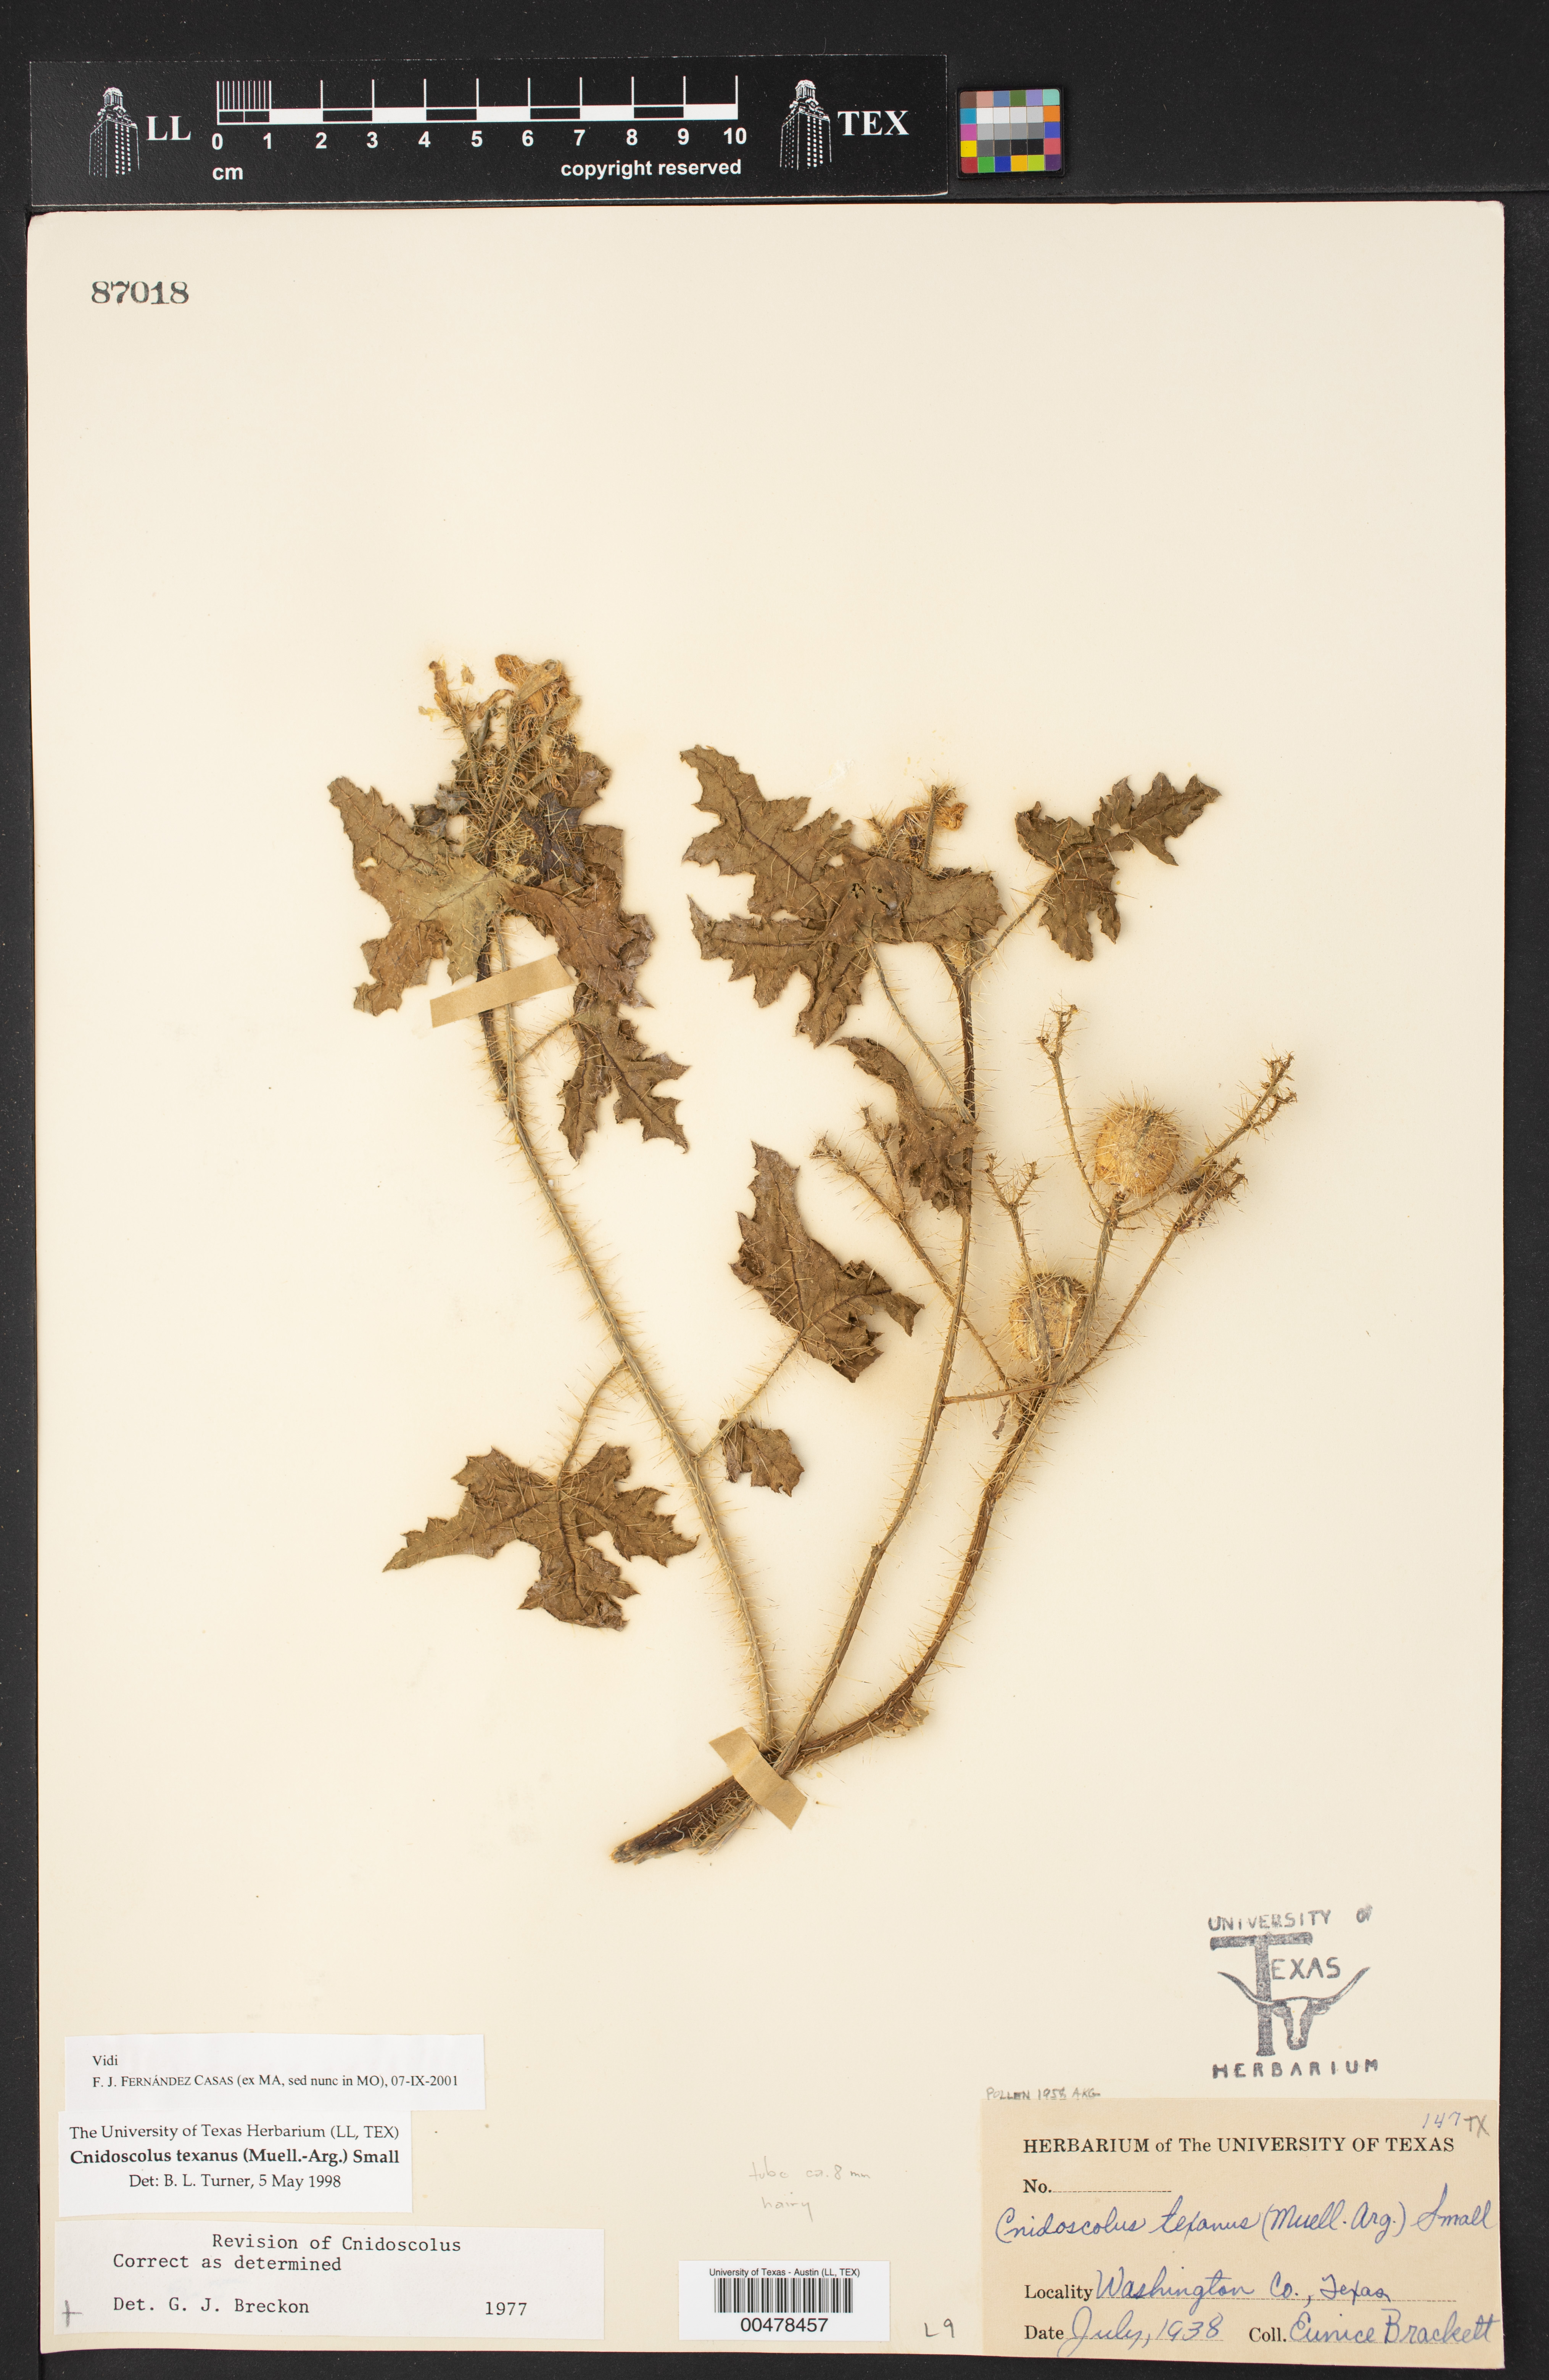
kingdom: Plantae
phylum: Tracheophyta
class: Magnoliopsida
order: Malpighiales
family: Euphorbiaceae
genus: Cnidoscolus
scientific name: Cnidoscolus texanus
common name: Texas bull-nettle
